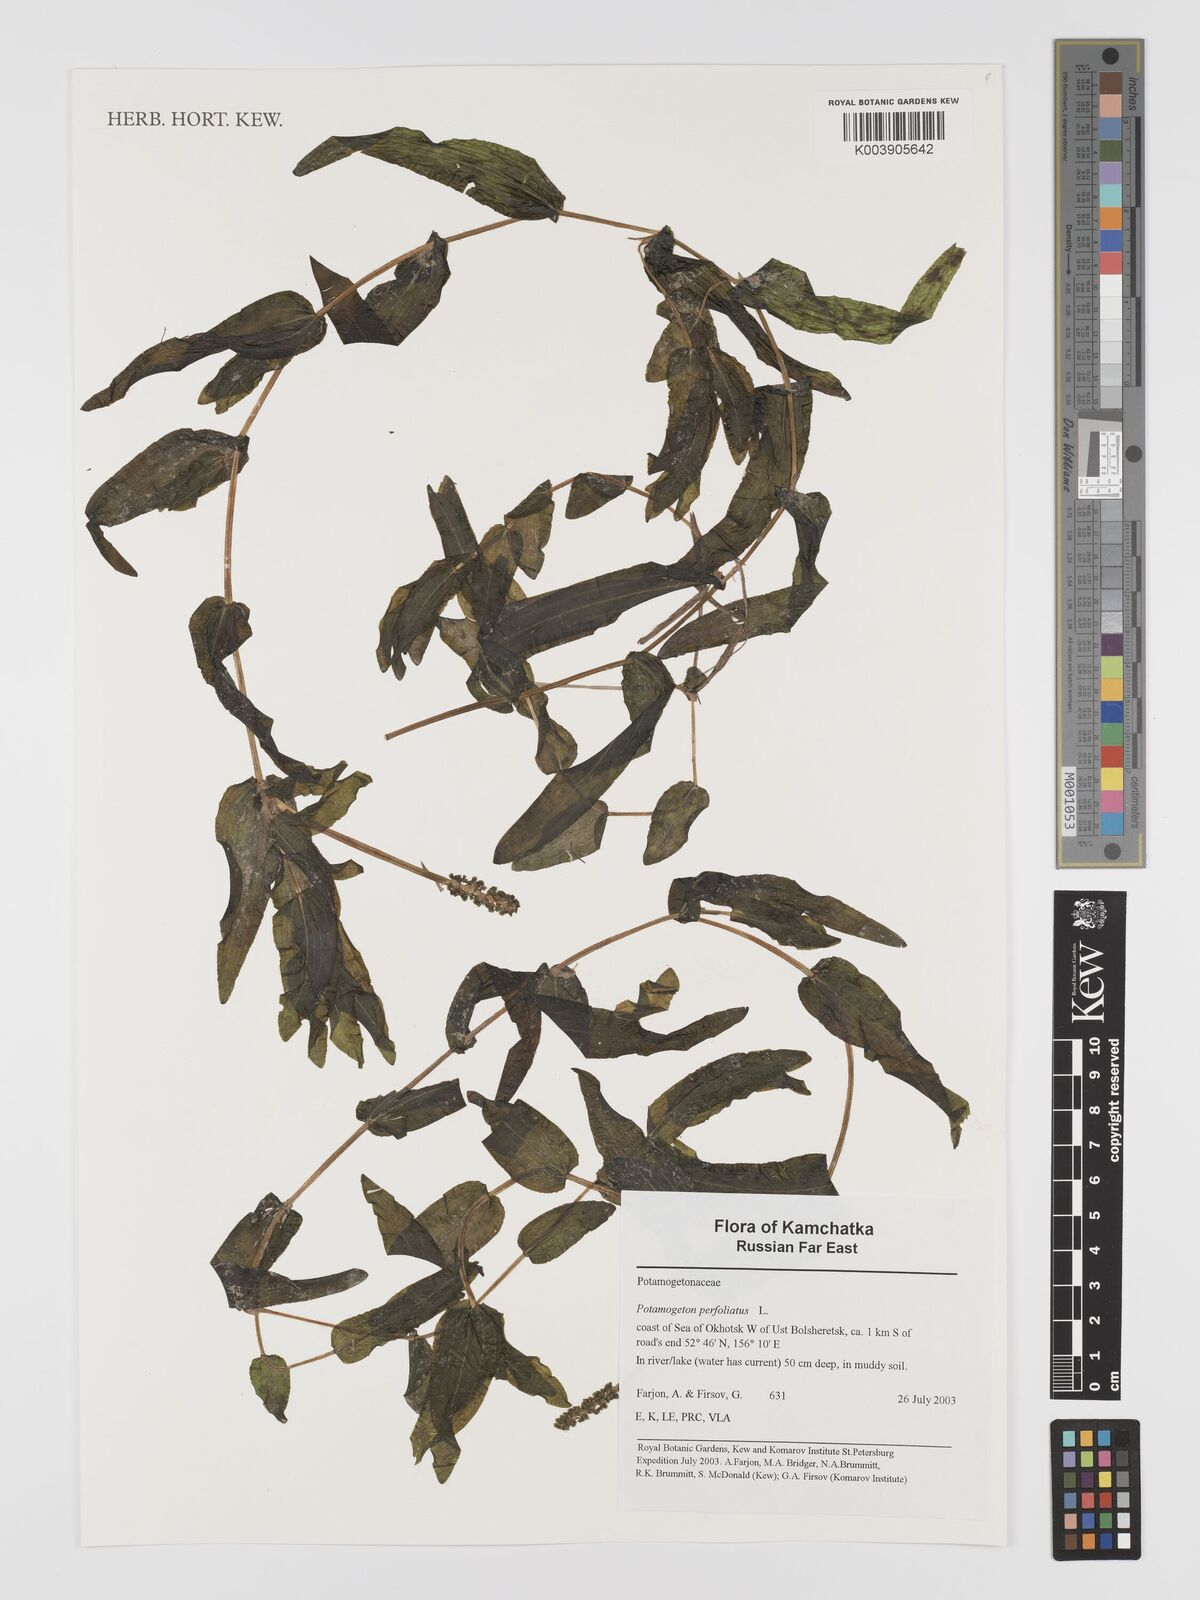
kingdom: Plantae
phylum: Tracheophyta
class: Liliopsida
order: Alismatales
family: Potamogetonaceae
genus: Potamogeton
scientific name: Potamogeton perfoliatus
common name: Perfoliate pondweed
